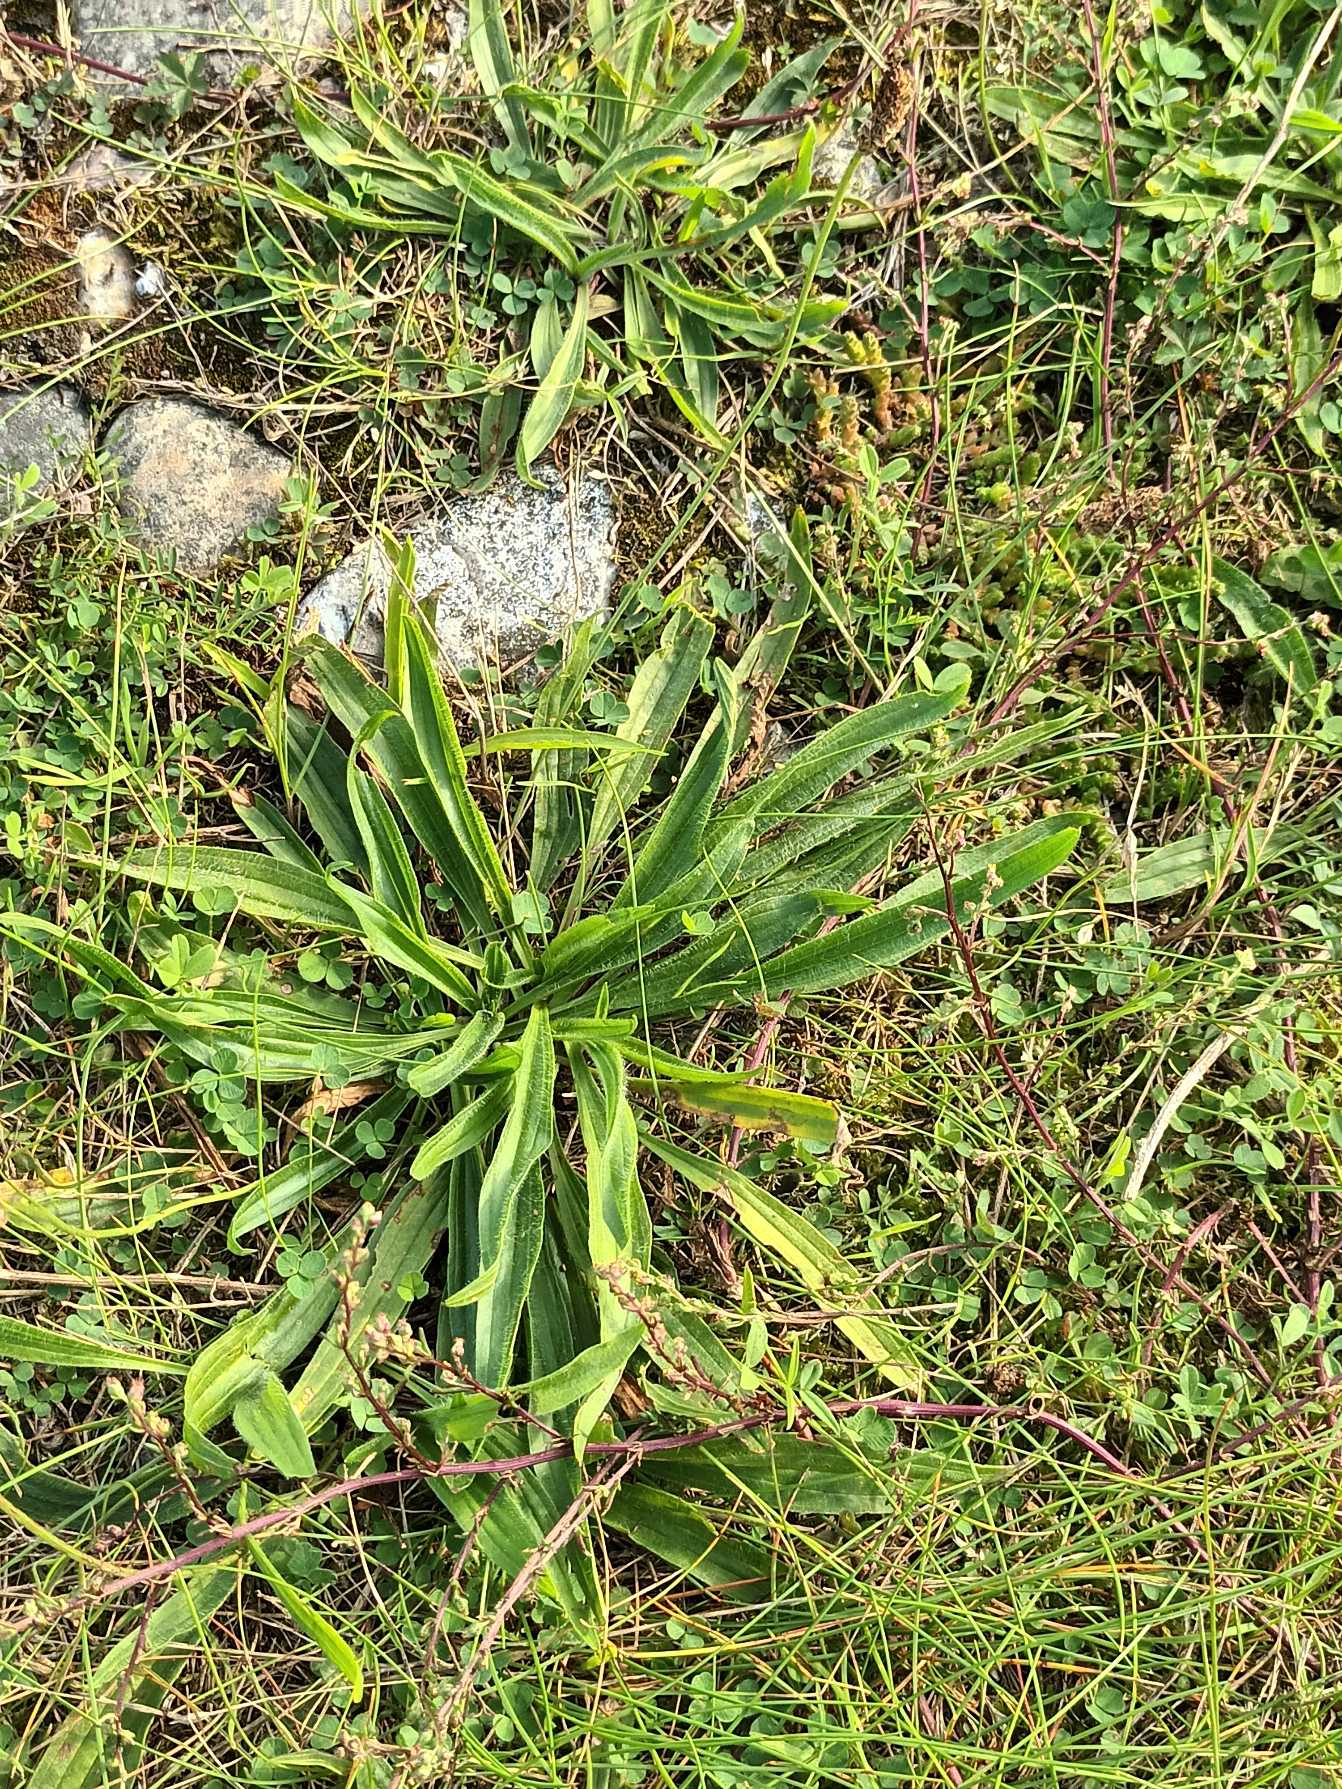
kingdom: Plantae
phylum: Tracheophyta
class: Magnoliopsida
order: Lamiales
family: Plantaginaceae
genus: Plantago
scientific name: Plantago lanceolata
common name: Lancet-vejbred
